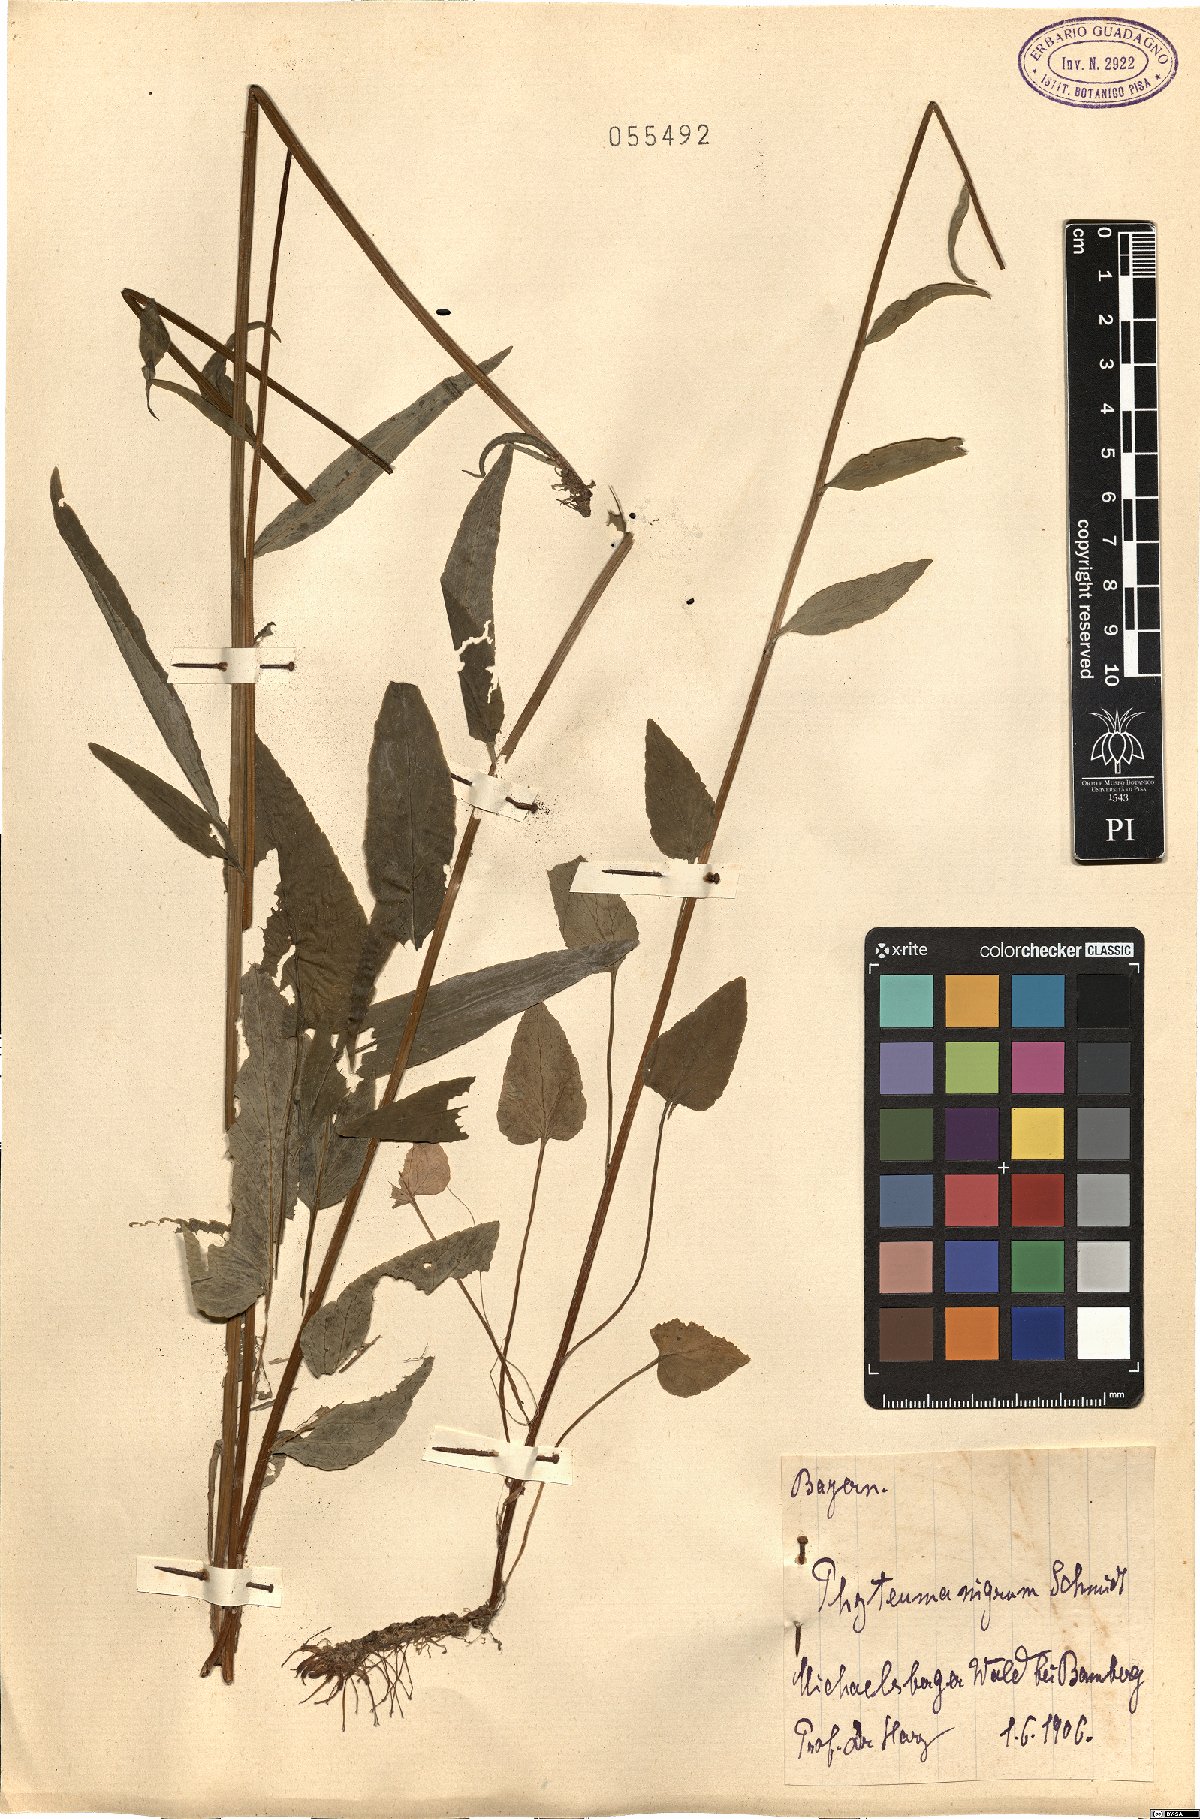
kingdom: Plantae
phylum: Tracheophyta
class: Magnoliopsida
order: Asterales
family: Campanulaceae
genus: Phyteuma
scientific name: Phyteuma nigrum
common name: Black rampion
